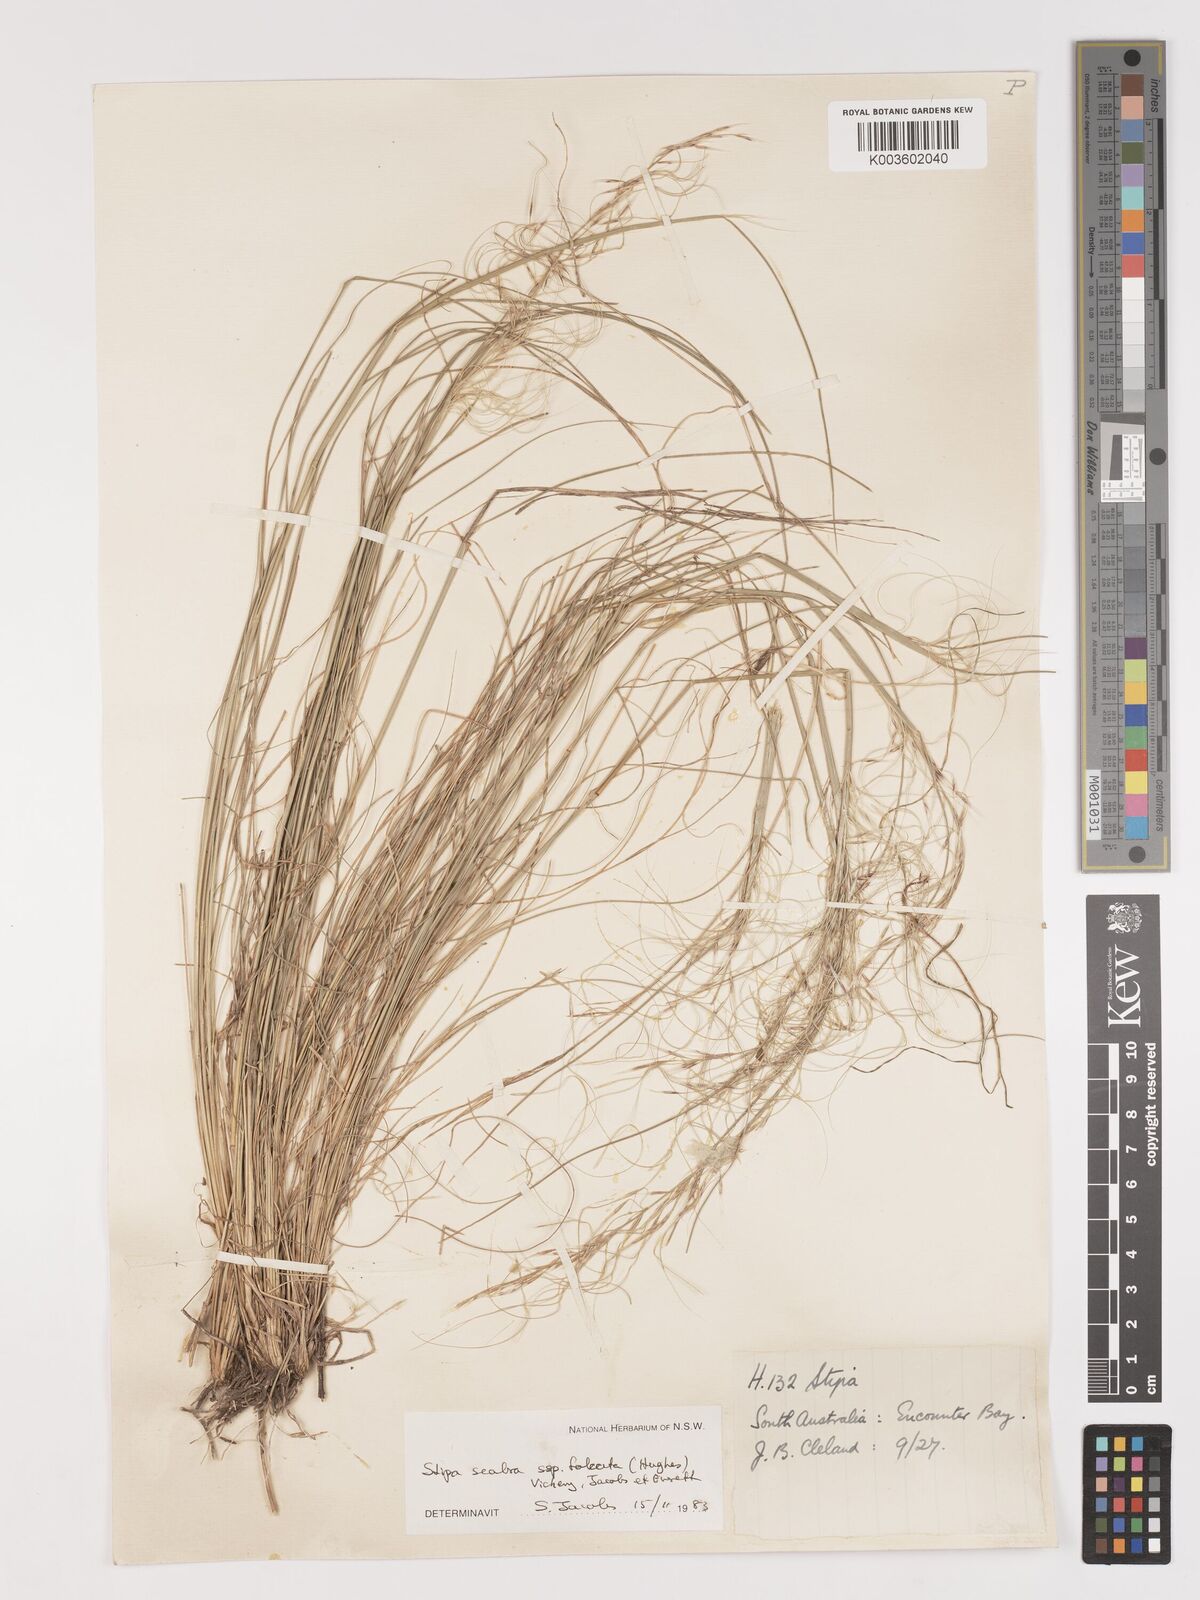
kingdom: Plantae
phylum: Tracheophyta
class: Liliopsida
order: Poales
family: Poaceae
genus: Austrostipa
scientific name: Austrostipa scabra
